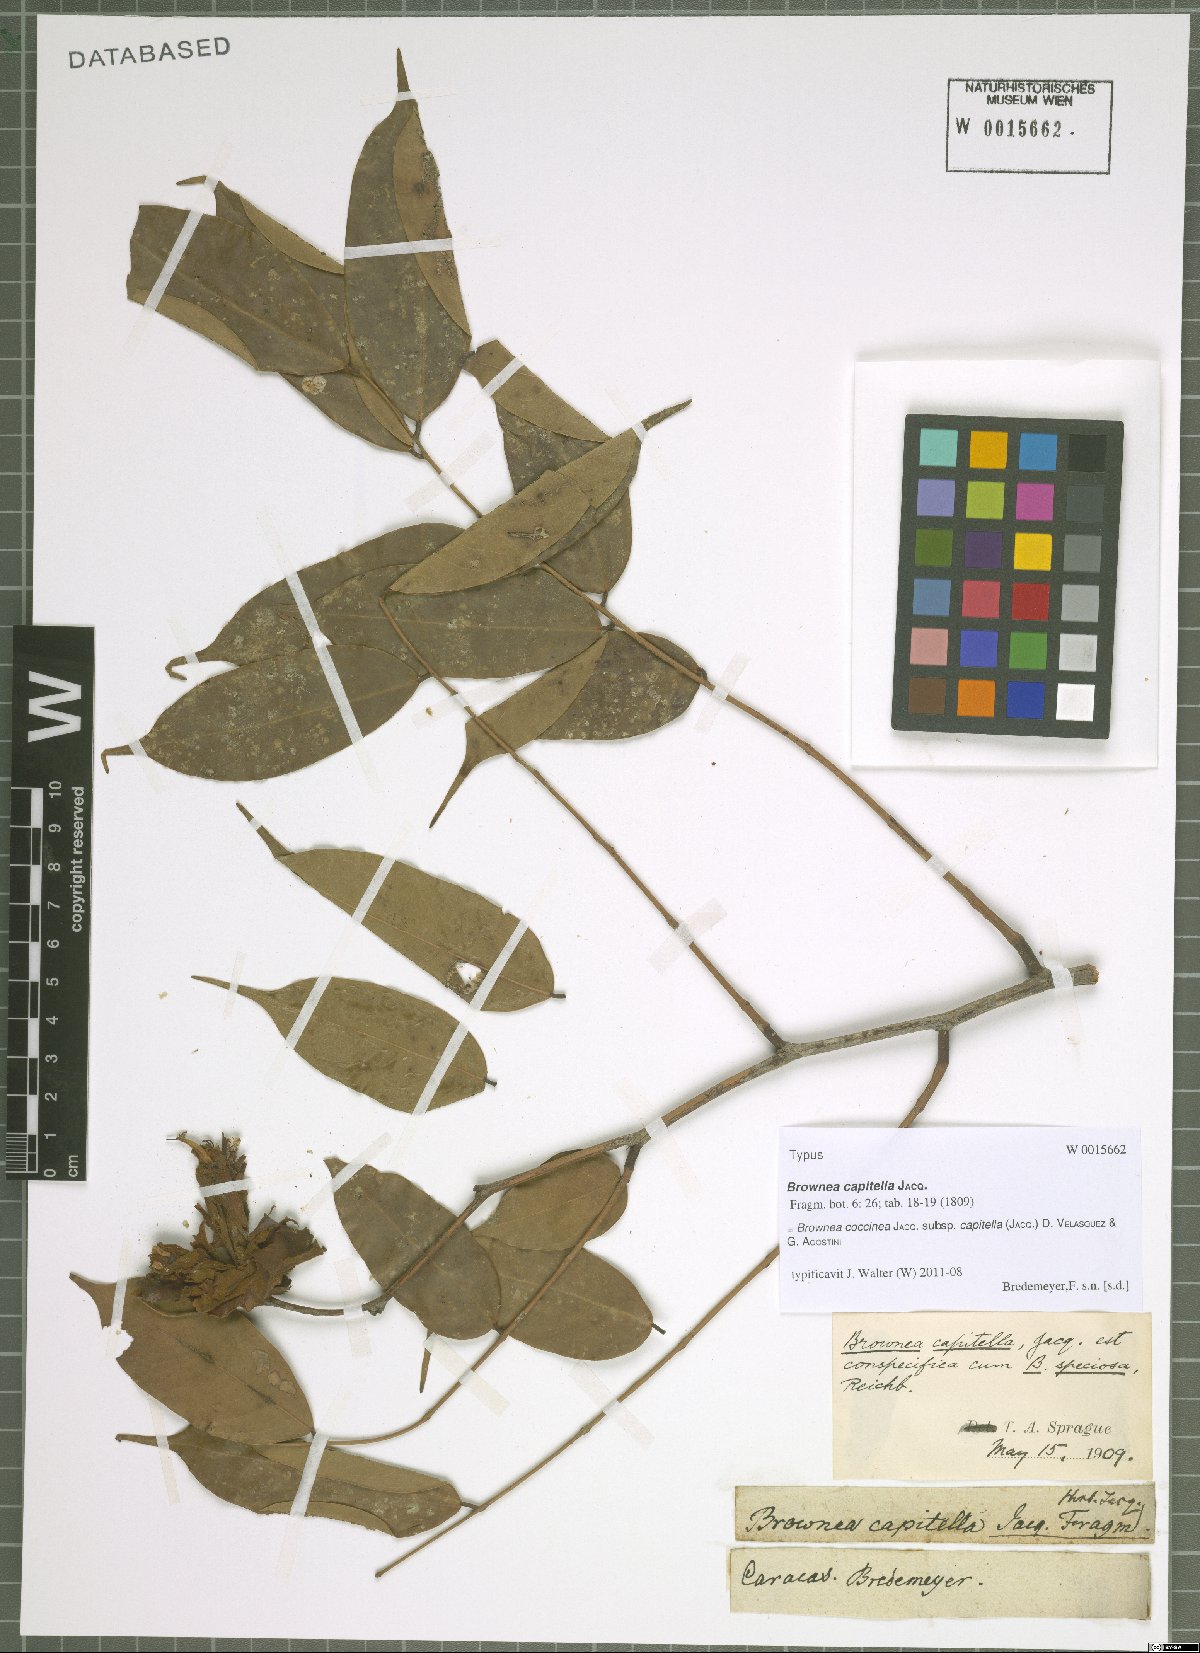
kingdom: Plantae
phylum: Tracheophyta
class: Magnoliopsida
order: Fabales
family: Fabaceae
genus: Brownea
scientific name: Brownea coccinea
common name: Scarlet flame-bean
